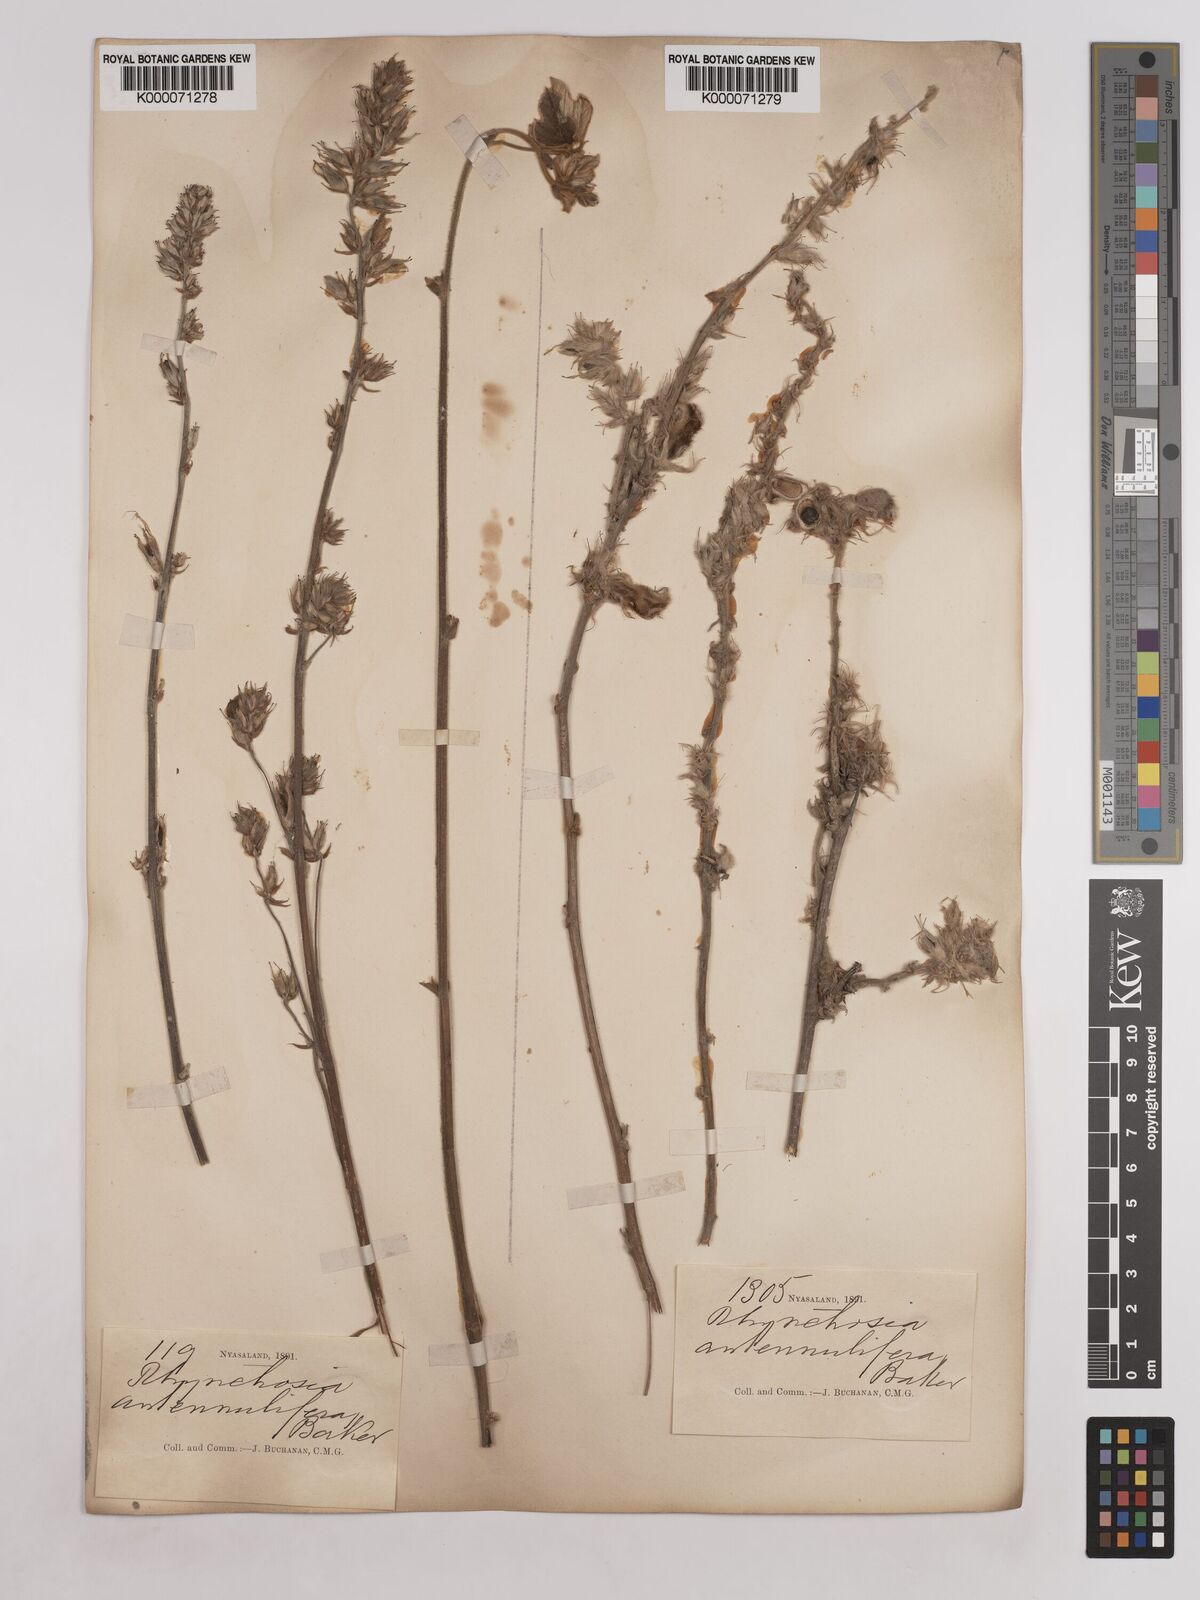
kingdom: Plantae
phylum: Tracheophyta
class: Magnoliopsida
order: Fabales
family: Fabaceae
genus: Eminia
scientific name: Eminia antennulifera
